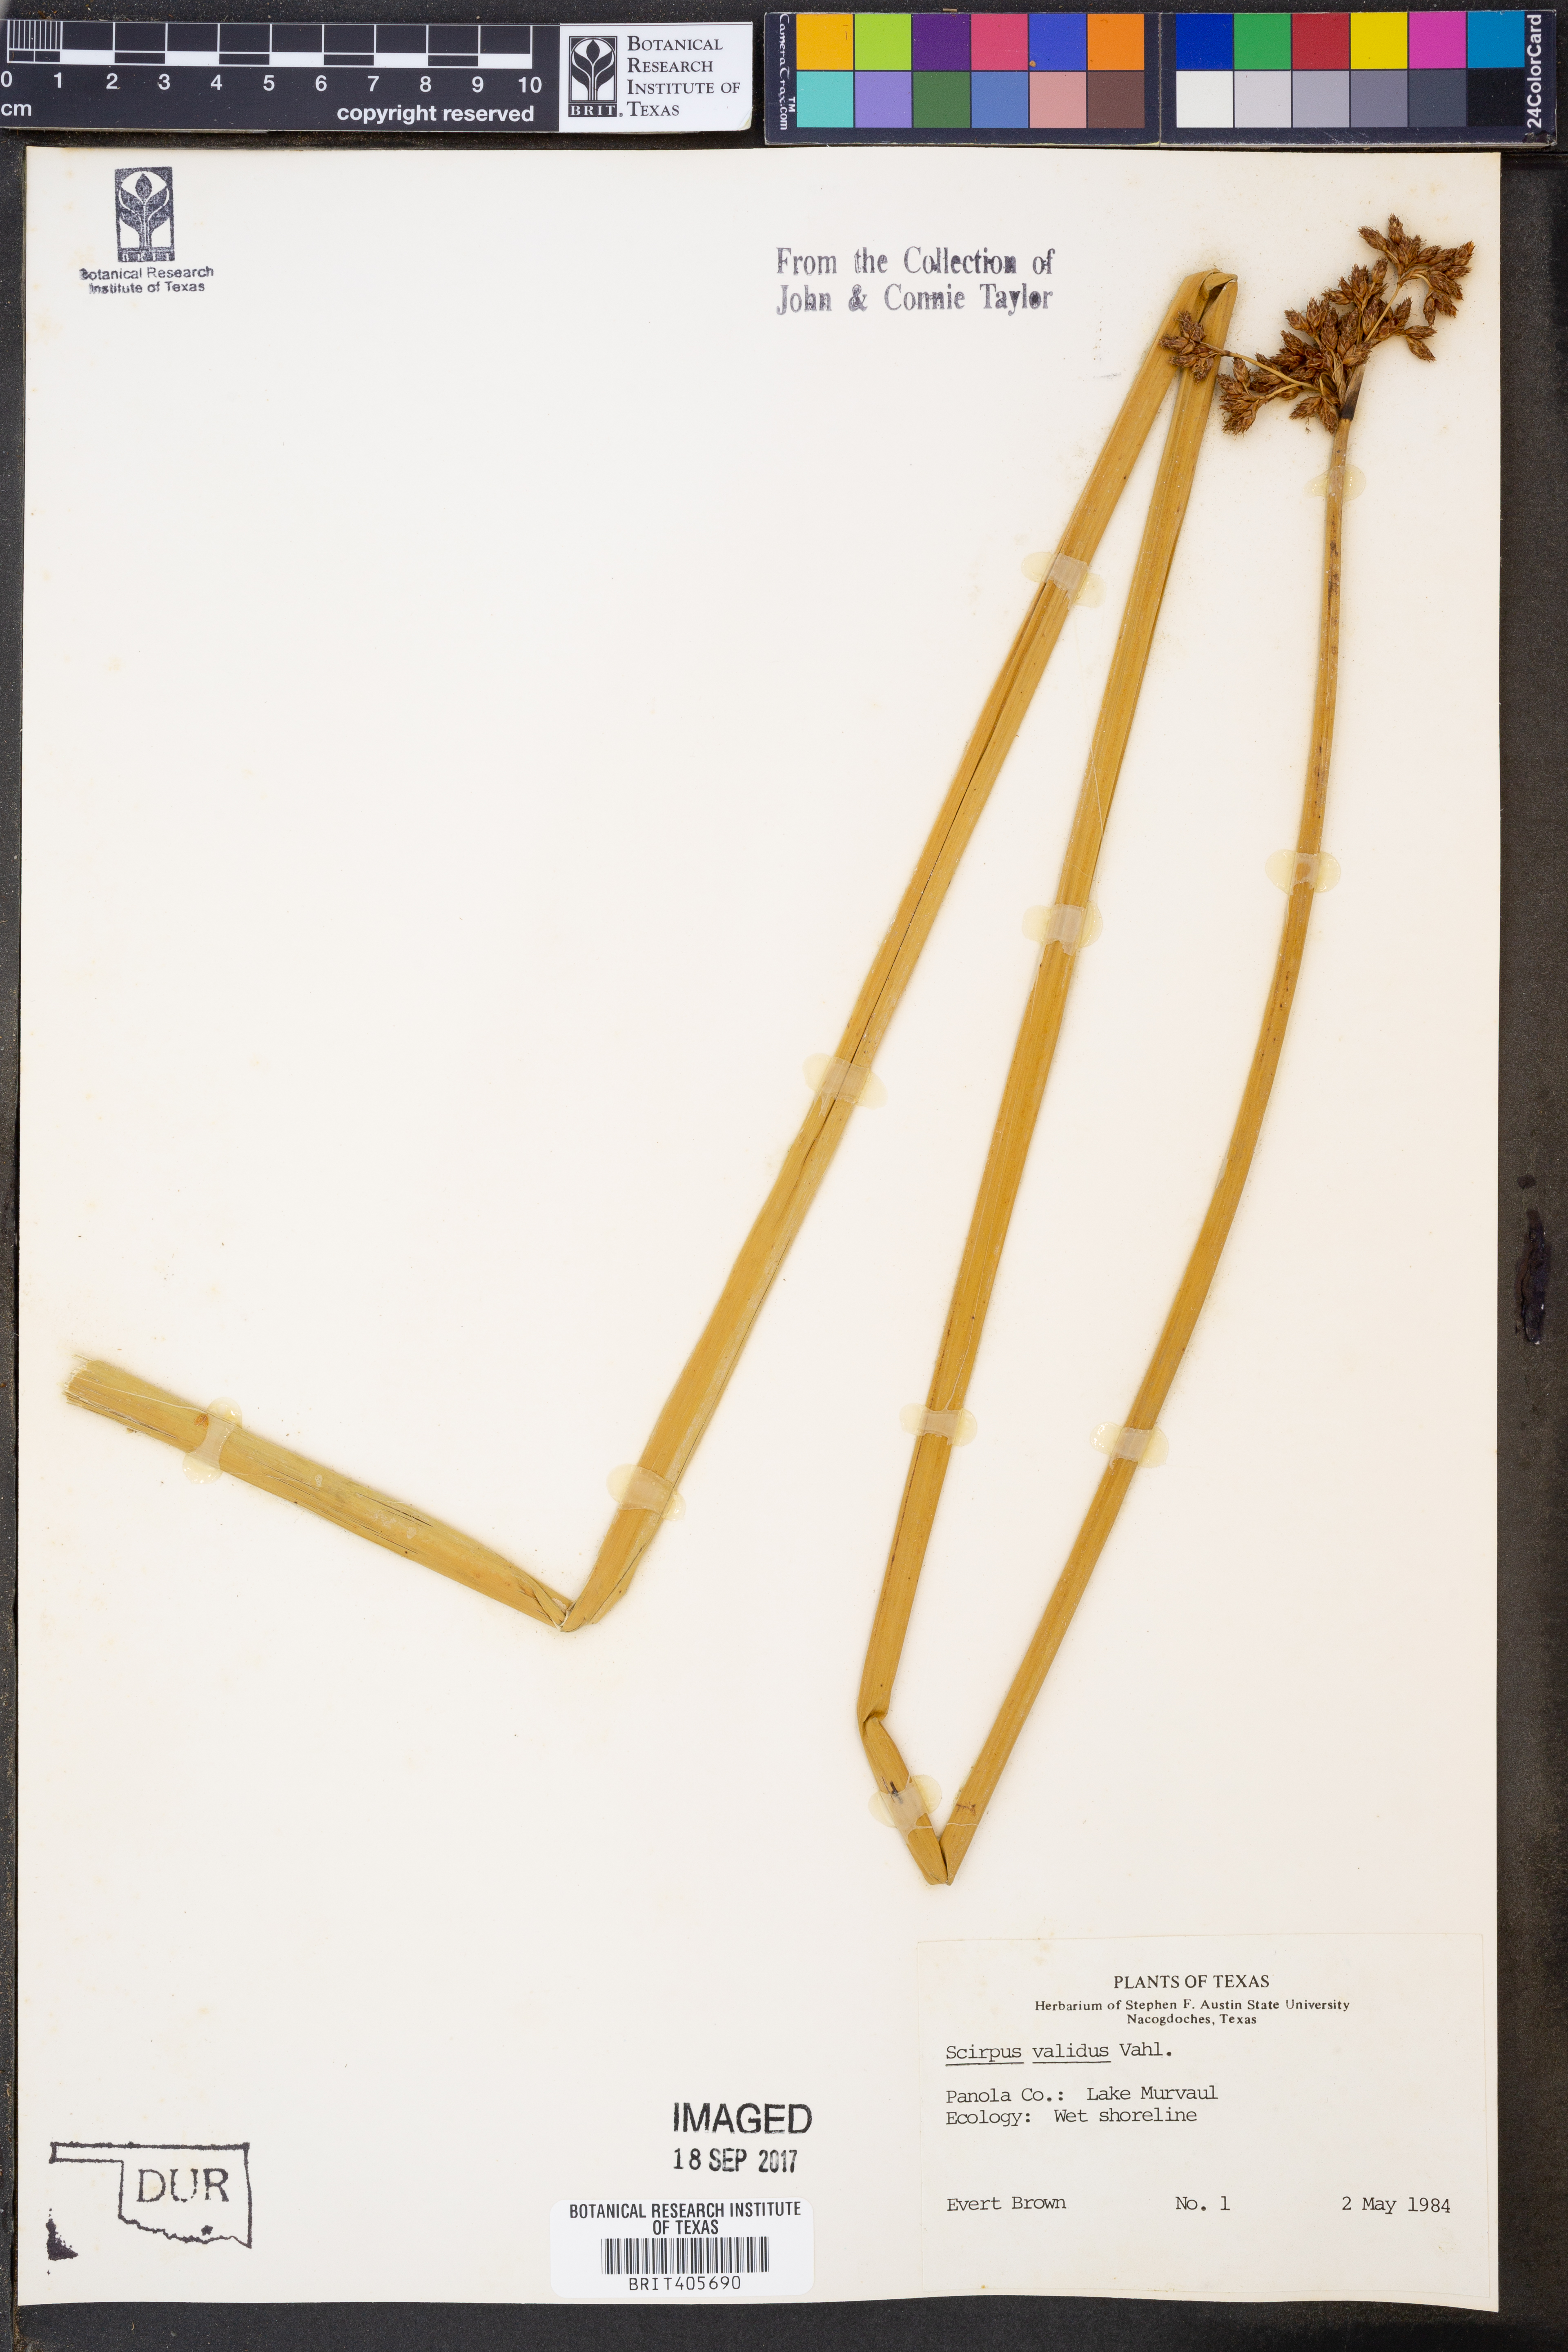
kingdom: Plantae
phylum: Tracheophyta
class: Liliopsida
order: Poales
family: Cyperaceae
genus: Schoenoplectus
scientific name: Schoenoplectus tabernaemontani
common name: Grey club-rush
